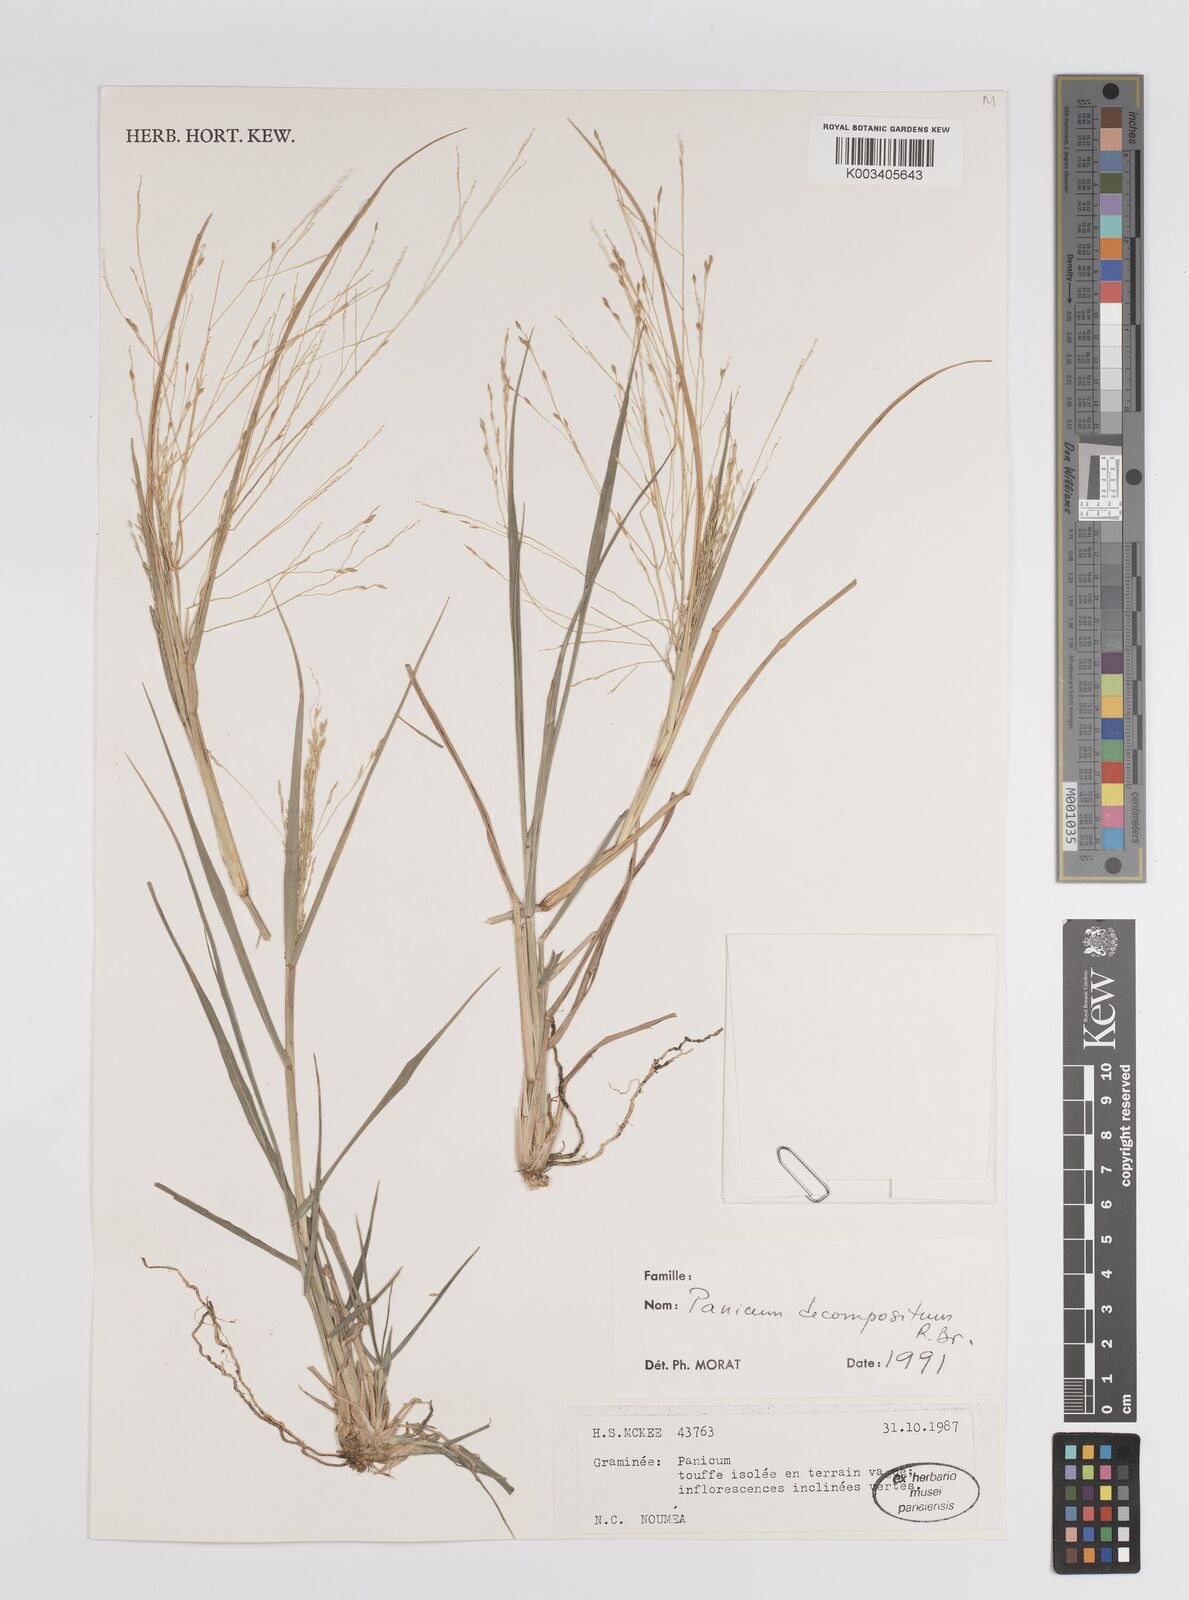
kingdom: Plantae
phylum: Tracheophyta
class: Liliopsida
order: Poales
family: Poaceae
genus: Panicum
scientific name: Panicum decompositum
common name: Australian millet
